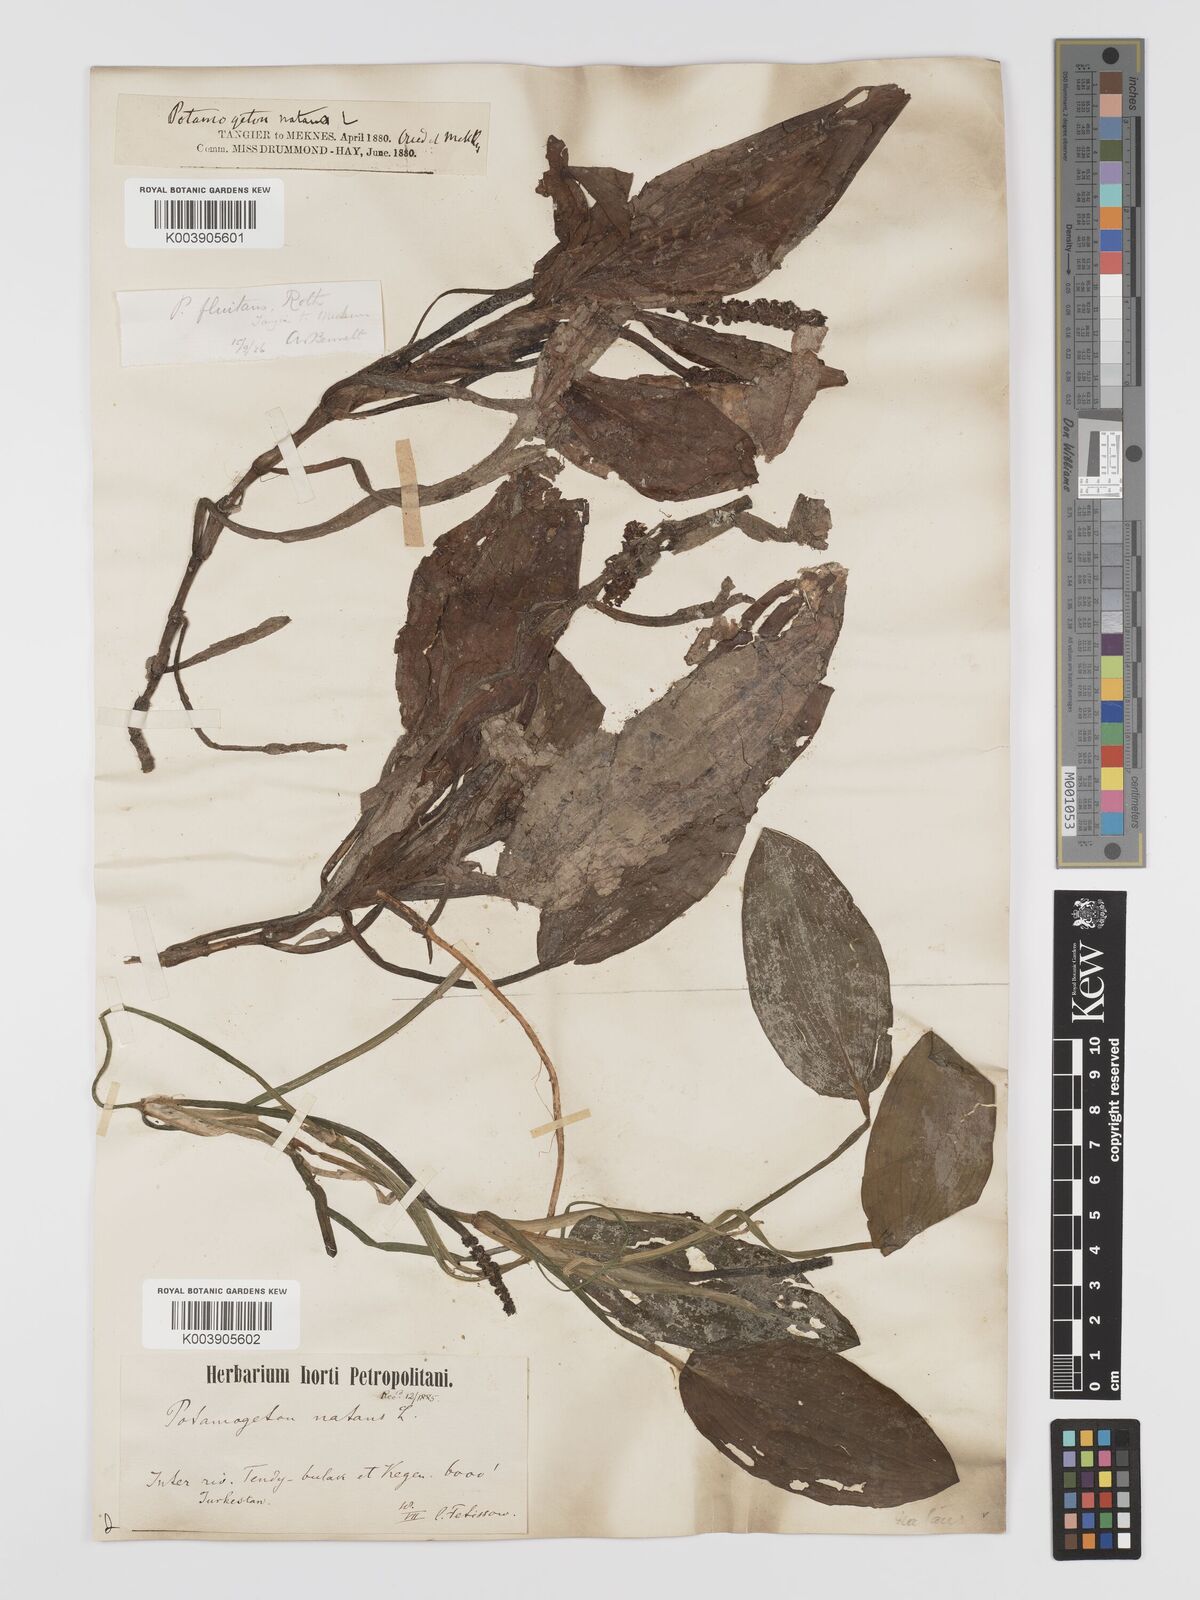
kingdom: Plantae
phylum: Tracheophyta
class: Liliopsida
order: Alismatales
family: Potamogetonaceae
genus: Potamogeton
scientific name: Potamogeton natans
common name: Broad-leaved pondweed
